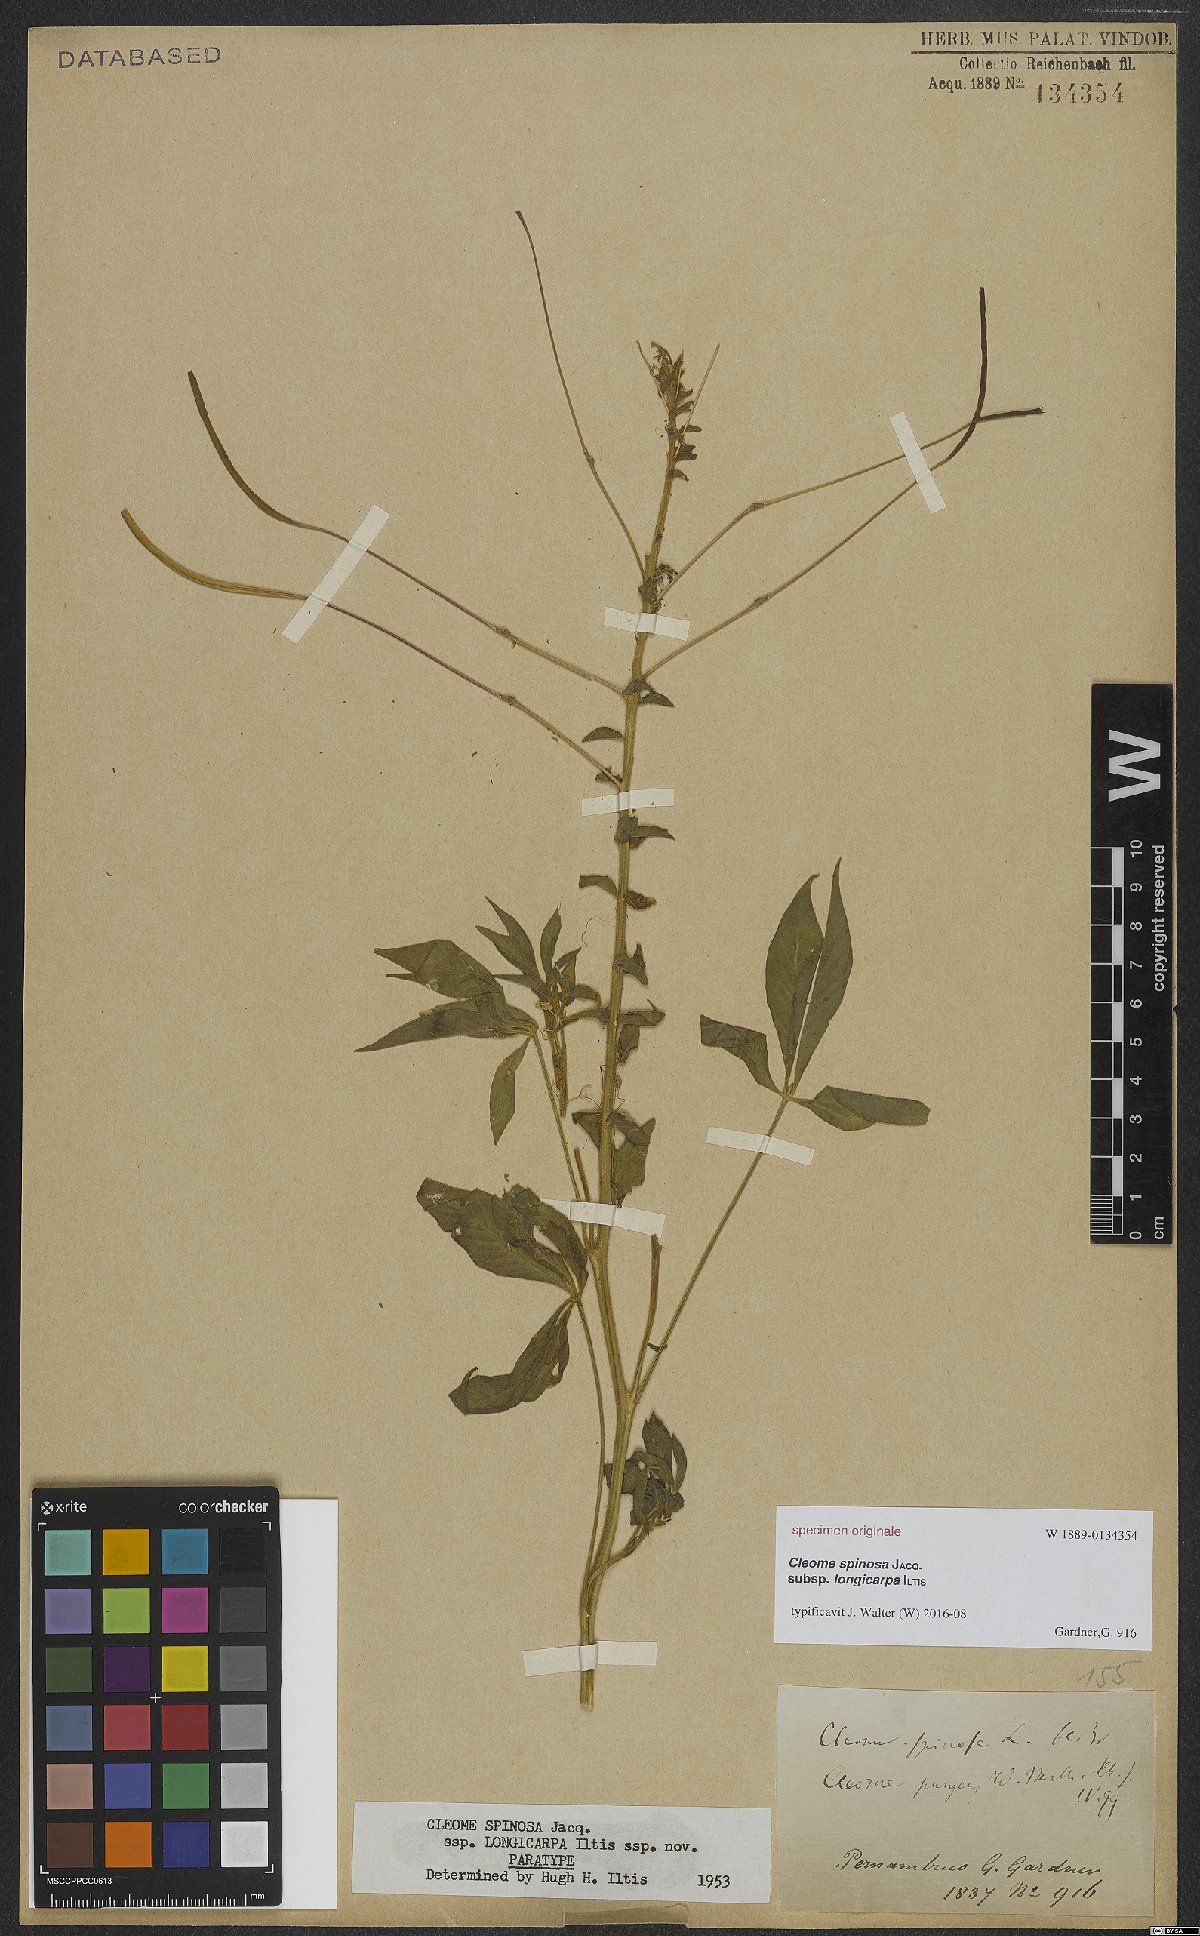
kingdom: Plantae
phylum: Tracheophyta
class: Magnoliopsida
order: Brassicales
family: Cleomaceae
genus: Tarenaya
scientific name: Tarenaya
